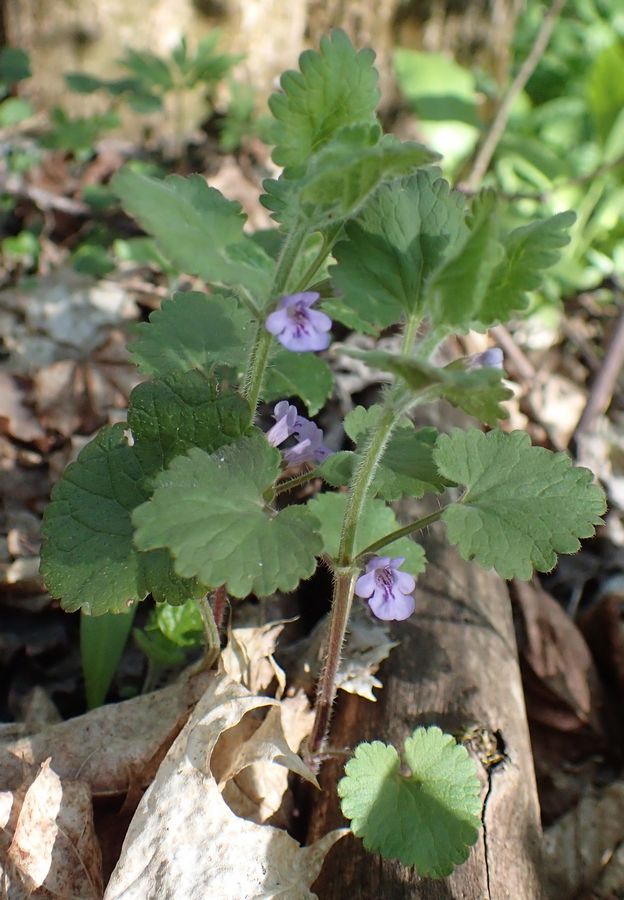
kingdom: Plantae
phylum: Tracheophyta
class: Magnoliopsida
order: Lamiales
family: Lamiaceae
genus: Glechoma
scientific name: Glechoma hederacea
